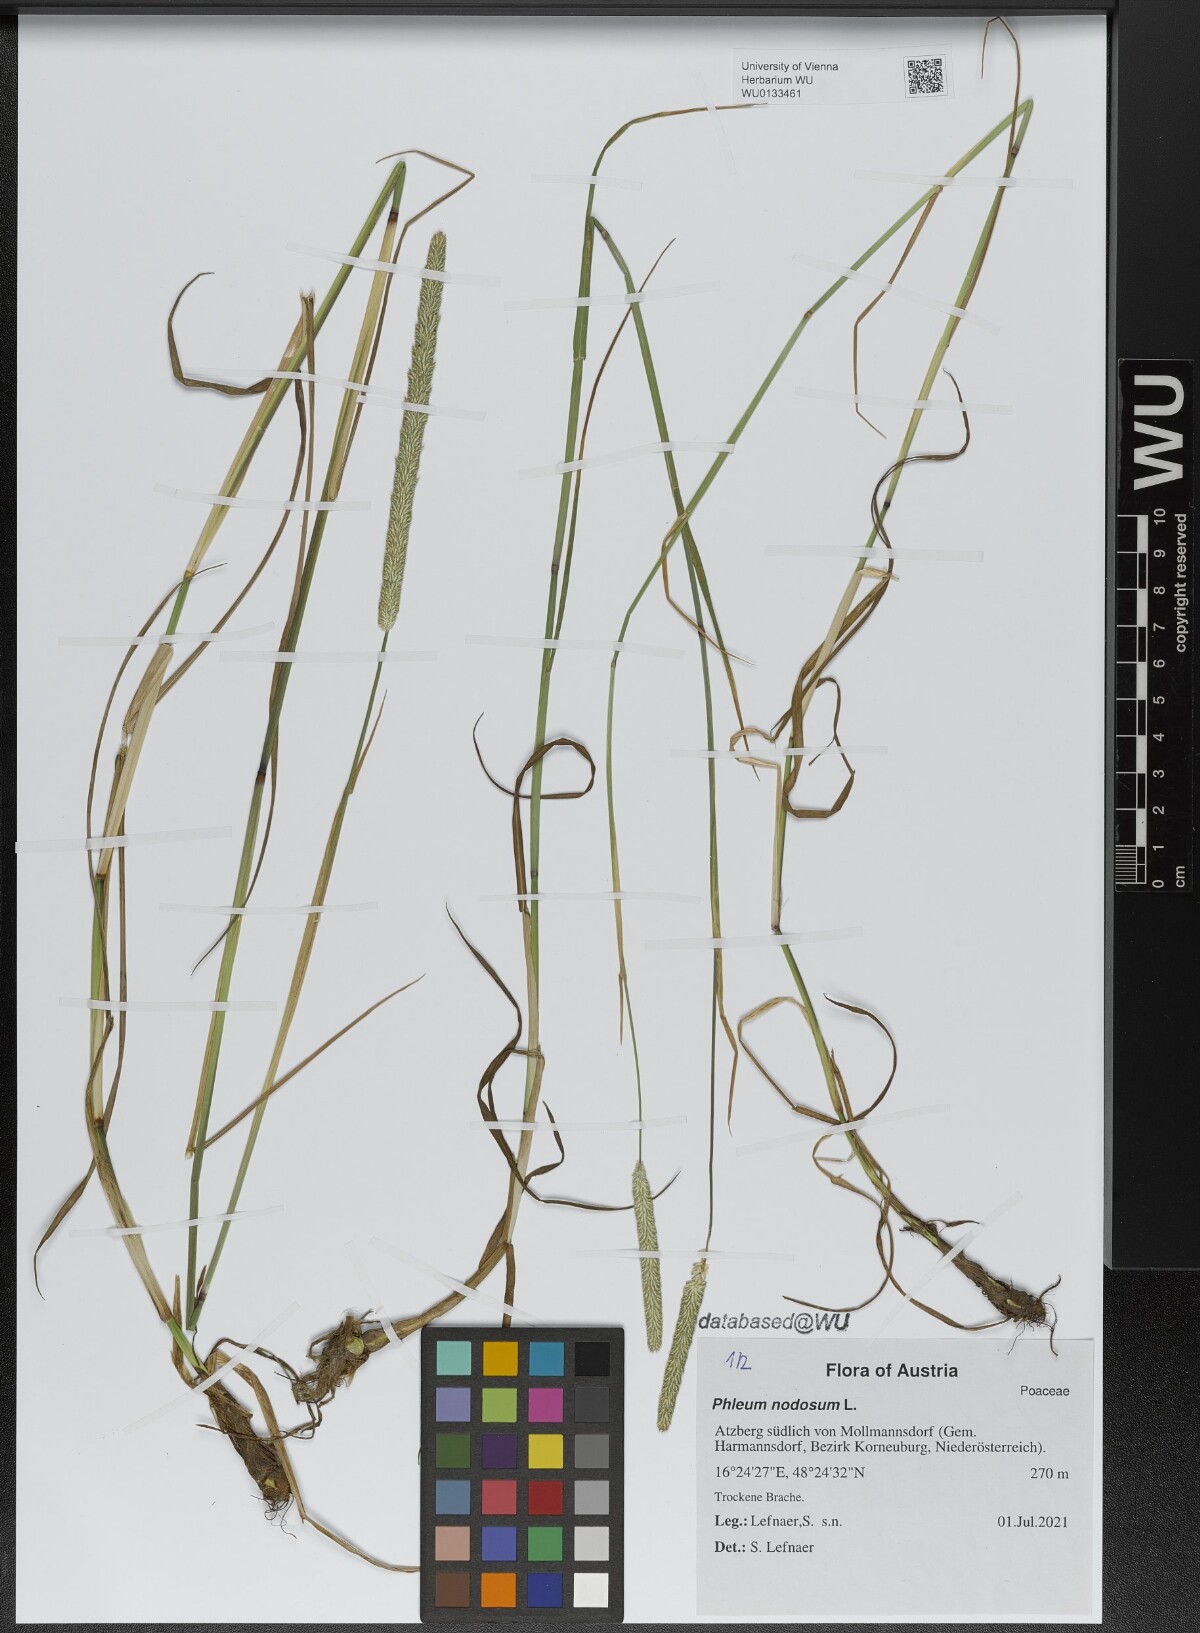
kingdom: Plantae
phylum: Tracheophyta
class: Liliopsida
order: Poales
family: Poaceae
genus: Phleum
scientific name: Phleum pratense
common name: Timothy grass
